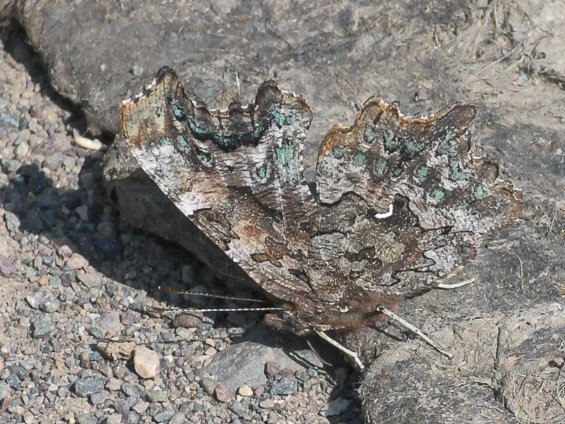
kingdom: Animalia
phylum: Arthropoda
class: Insecta
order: Lepidoptera
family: Nymphalidae
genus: Polygonia
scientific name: Polygonia faunus
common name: Green Comma
